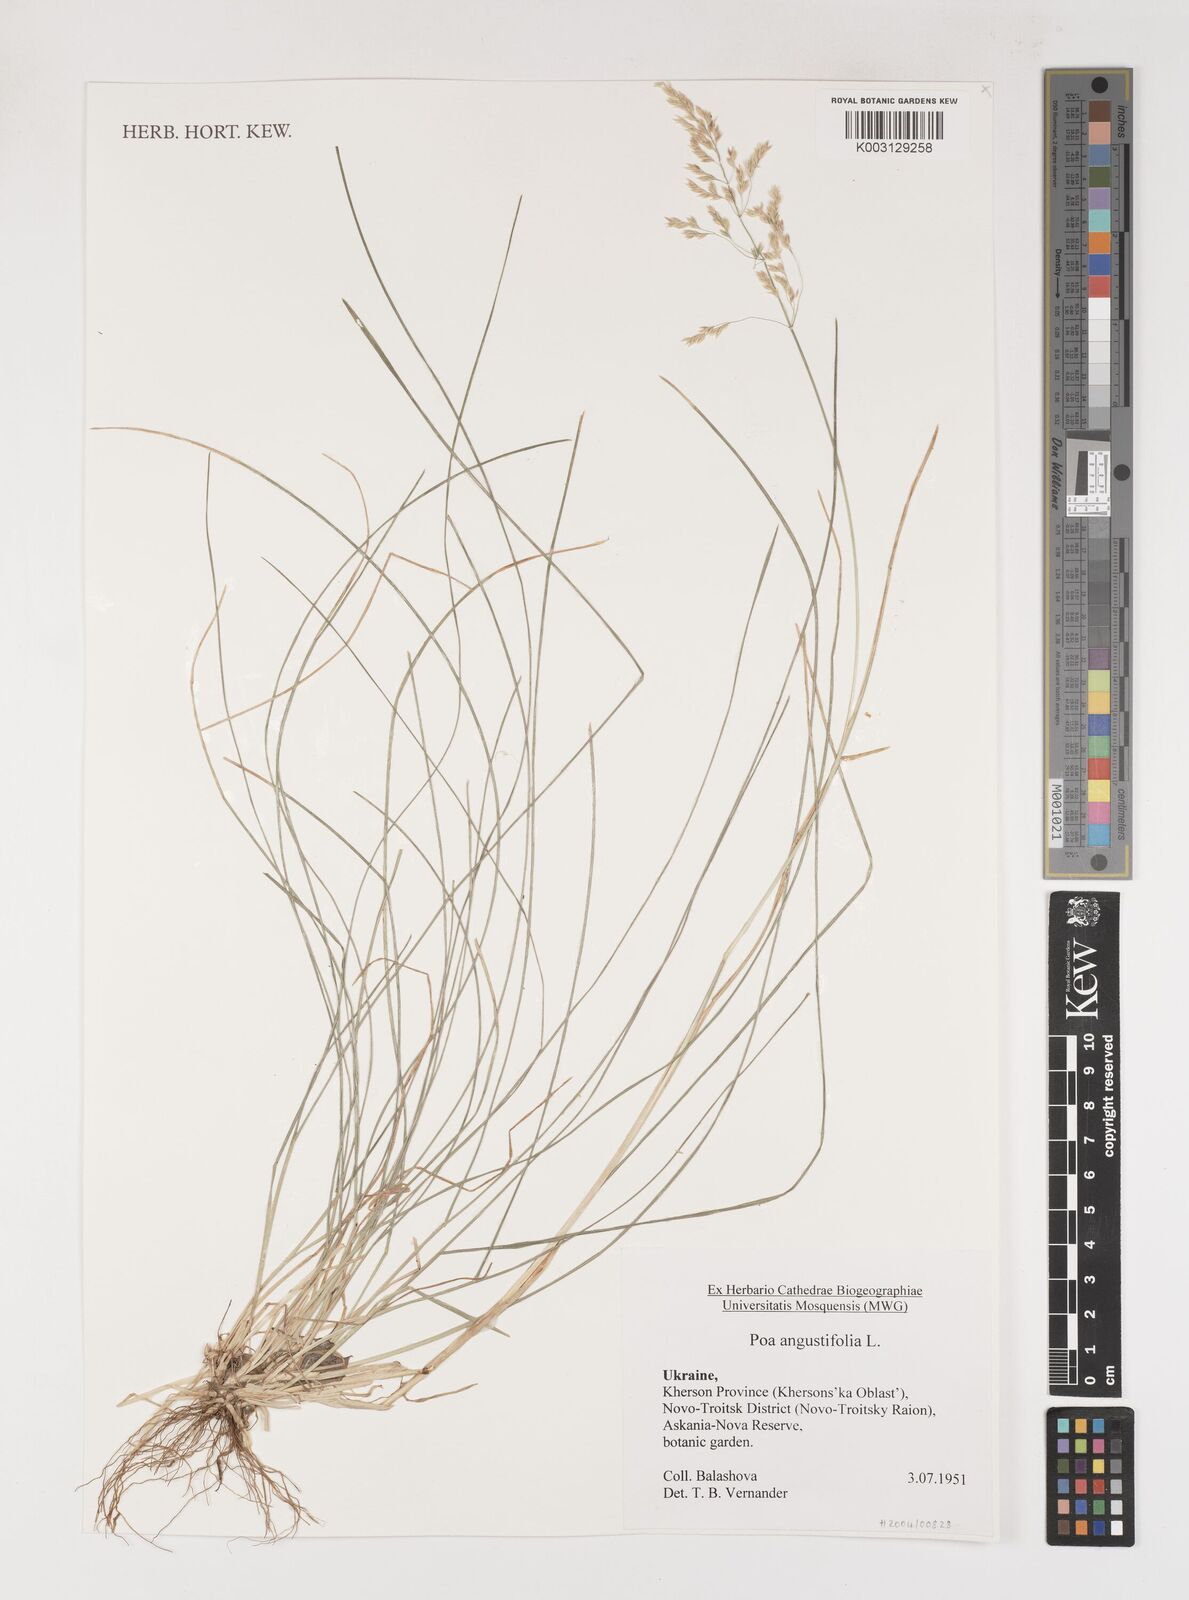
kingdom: Plantae
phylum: Tracheophyta
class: Liliopsida
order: Poales
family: Poaceae
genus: Poa
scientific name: Poa angustifolia
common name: Narrow-leaved meadow-grass
